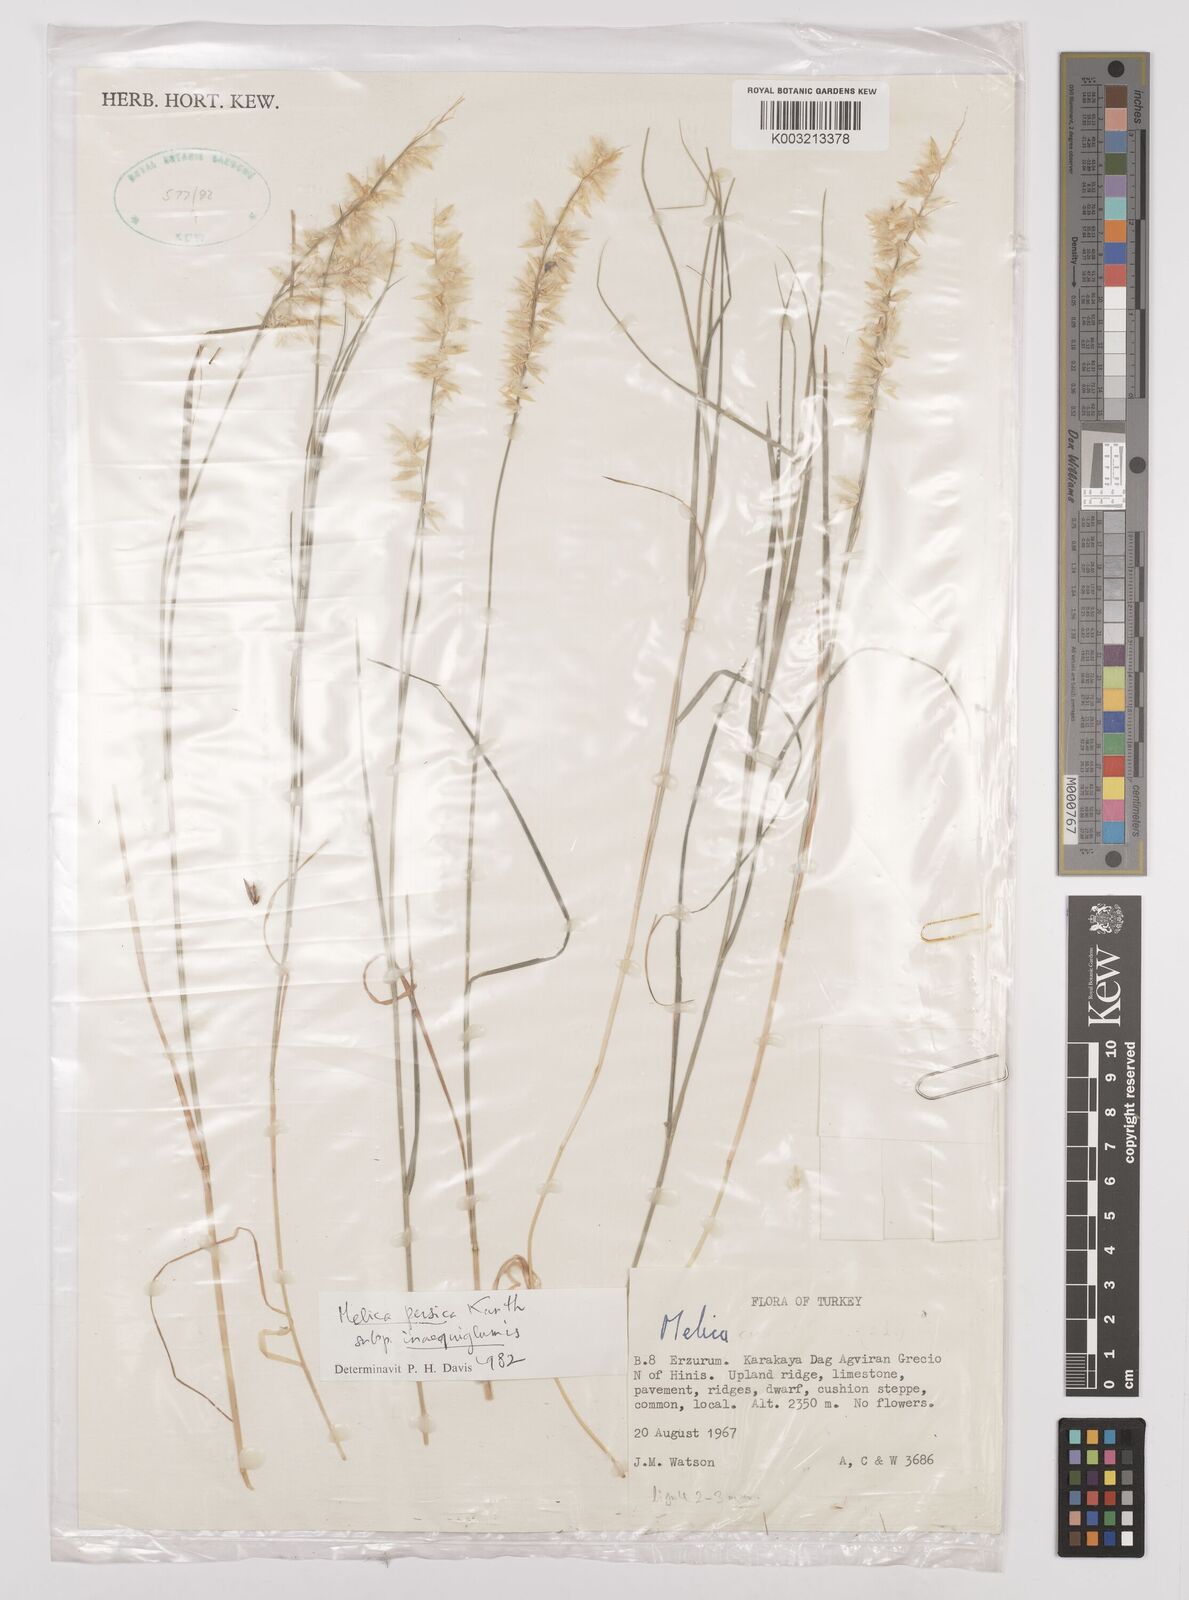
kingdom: Plantae
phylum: Tracheophyta
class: Liliopsida
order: Poales
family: Poaceae
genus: Melica
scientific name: Melica persica
